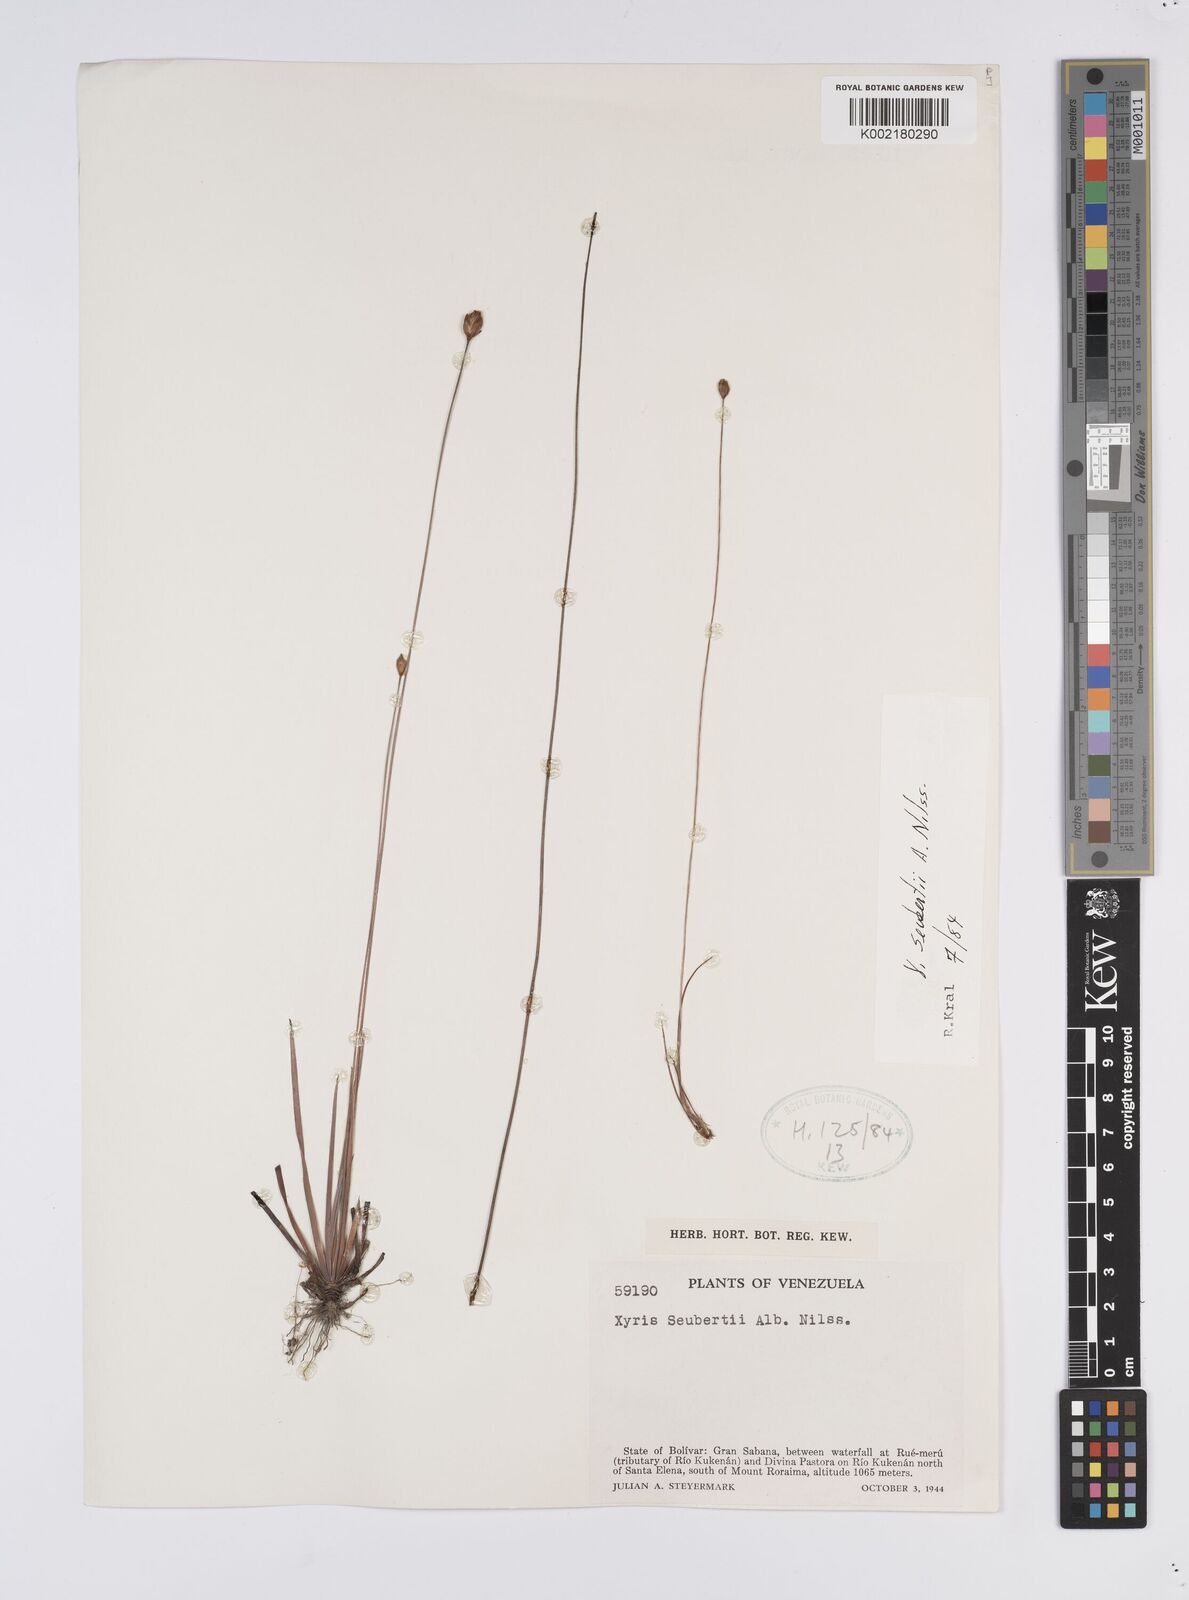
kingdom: Plantae
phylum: Tracheophyta
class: Liliopsida
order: Poales
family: Xyridaceae
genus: Xyris
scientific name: Xyris seubertii
